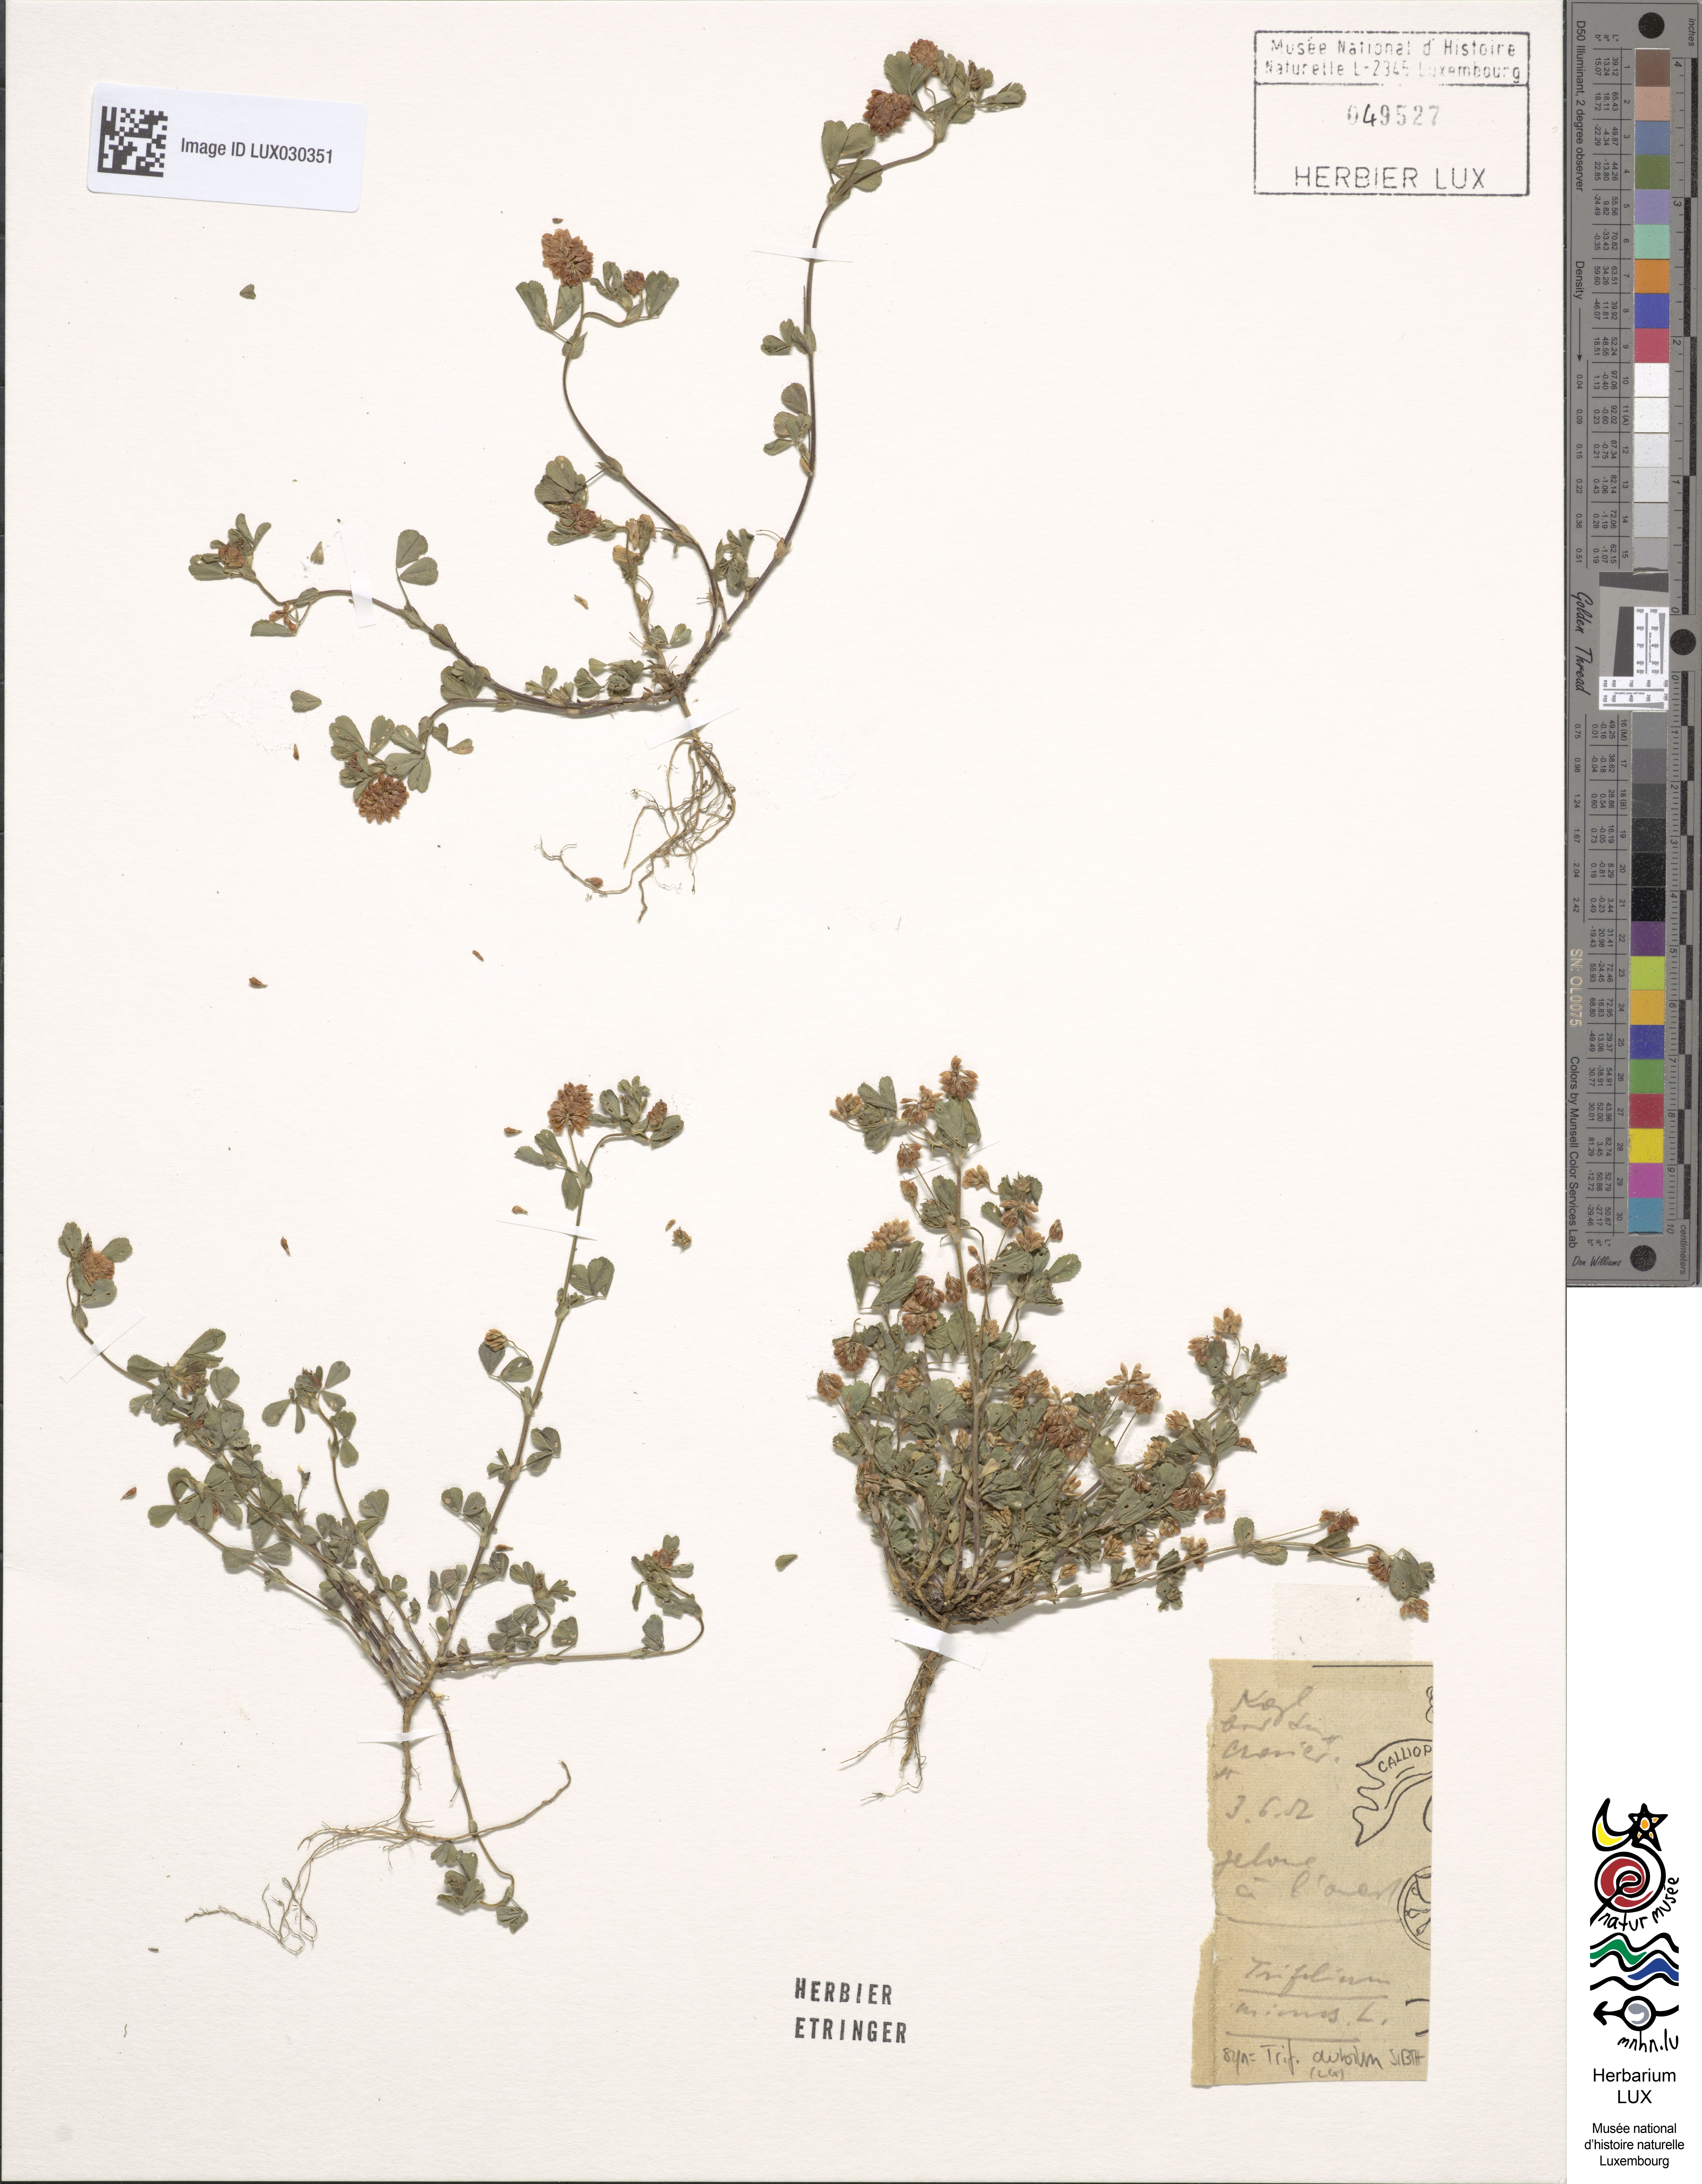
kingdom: Plantae
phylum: Tracheophyta
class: Magnoliopsida
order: Fabales
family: Fabaceae
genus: Trifolium
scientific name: Trifolium dubium
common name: Suckling clover
